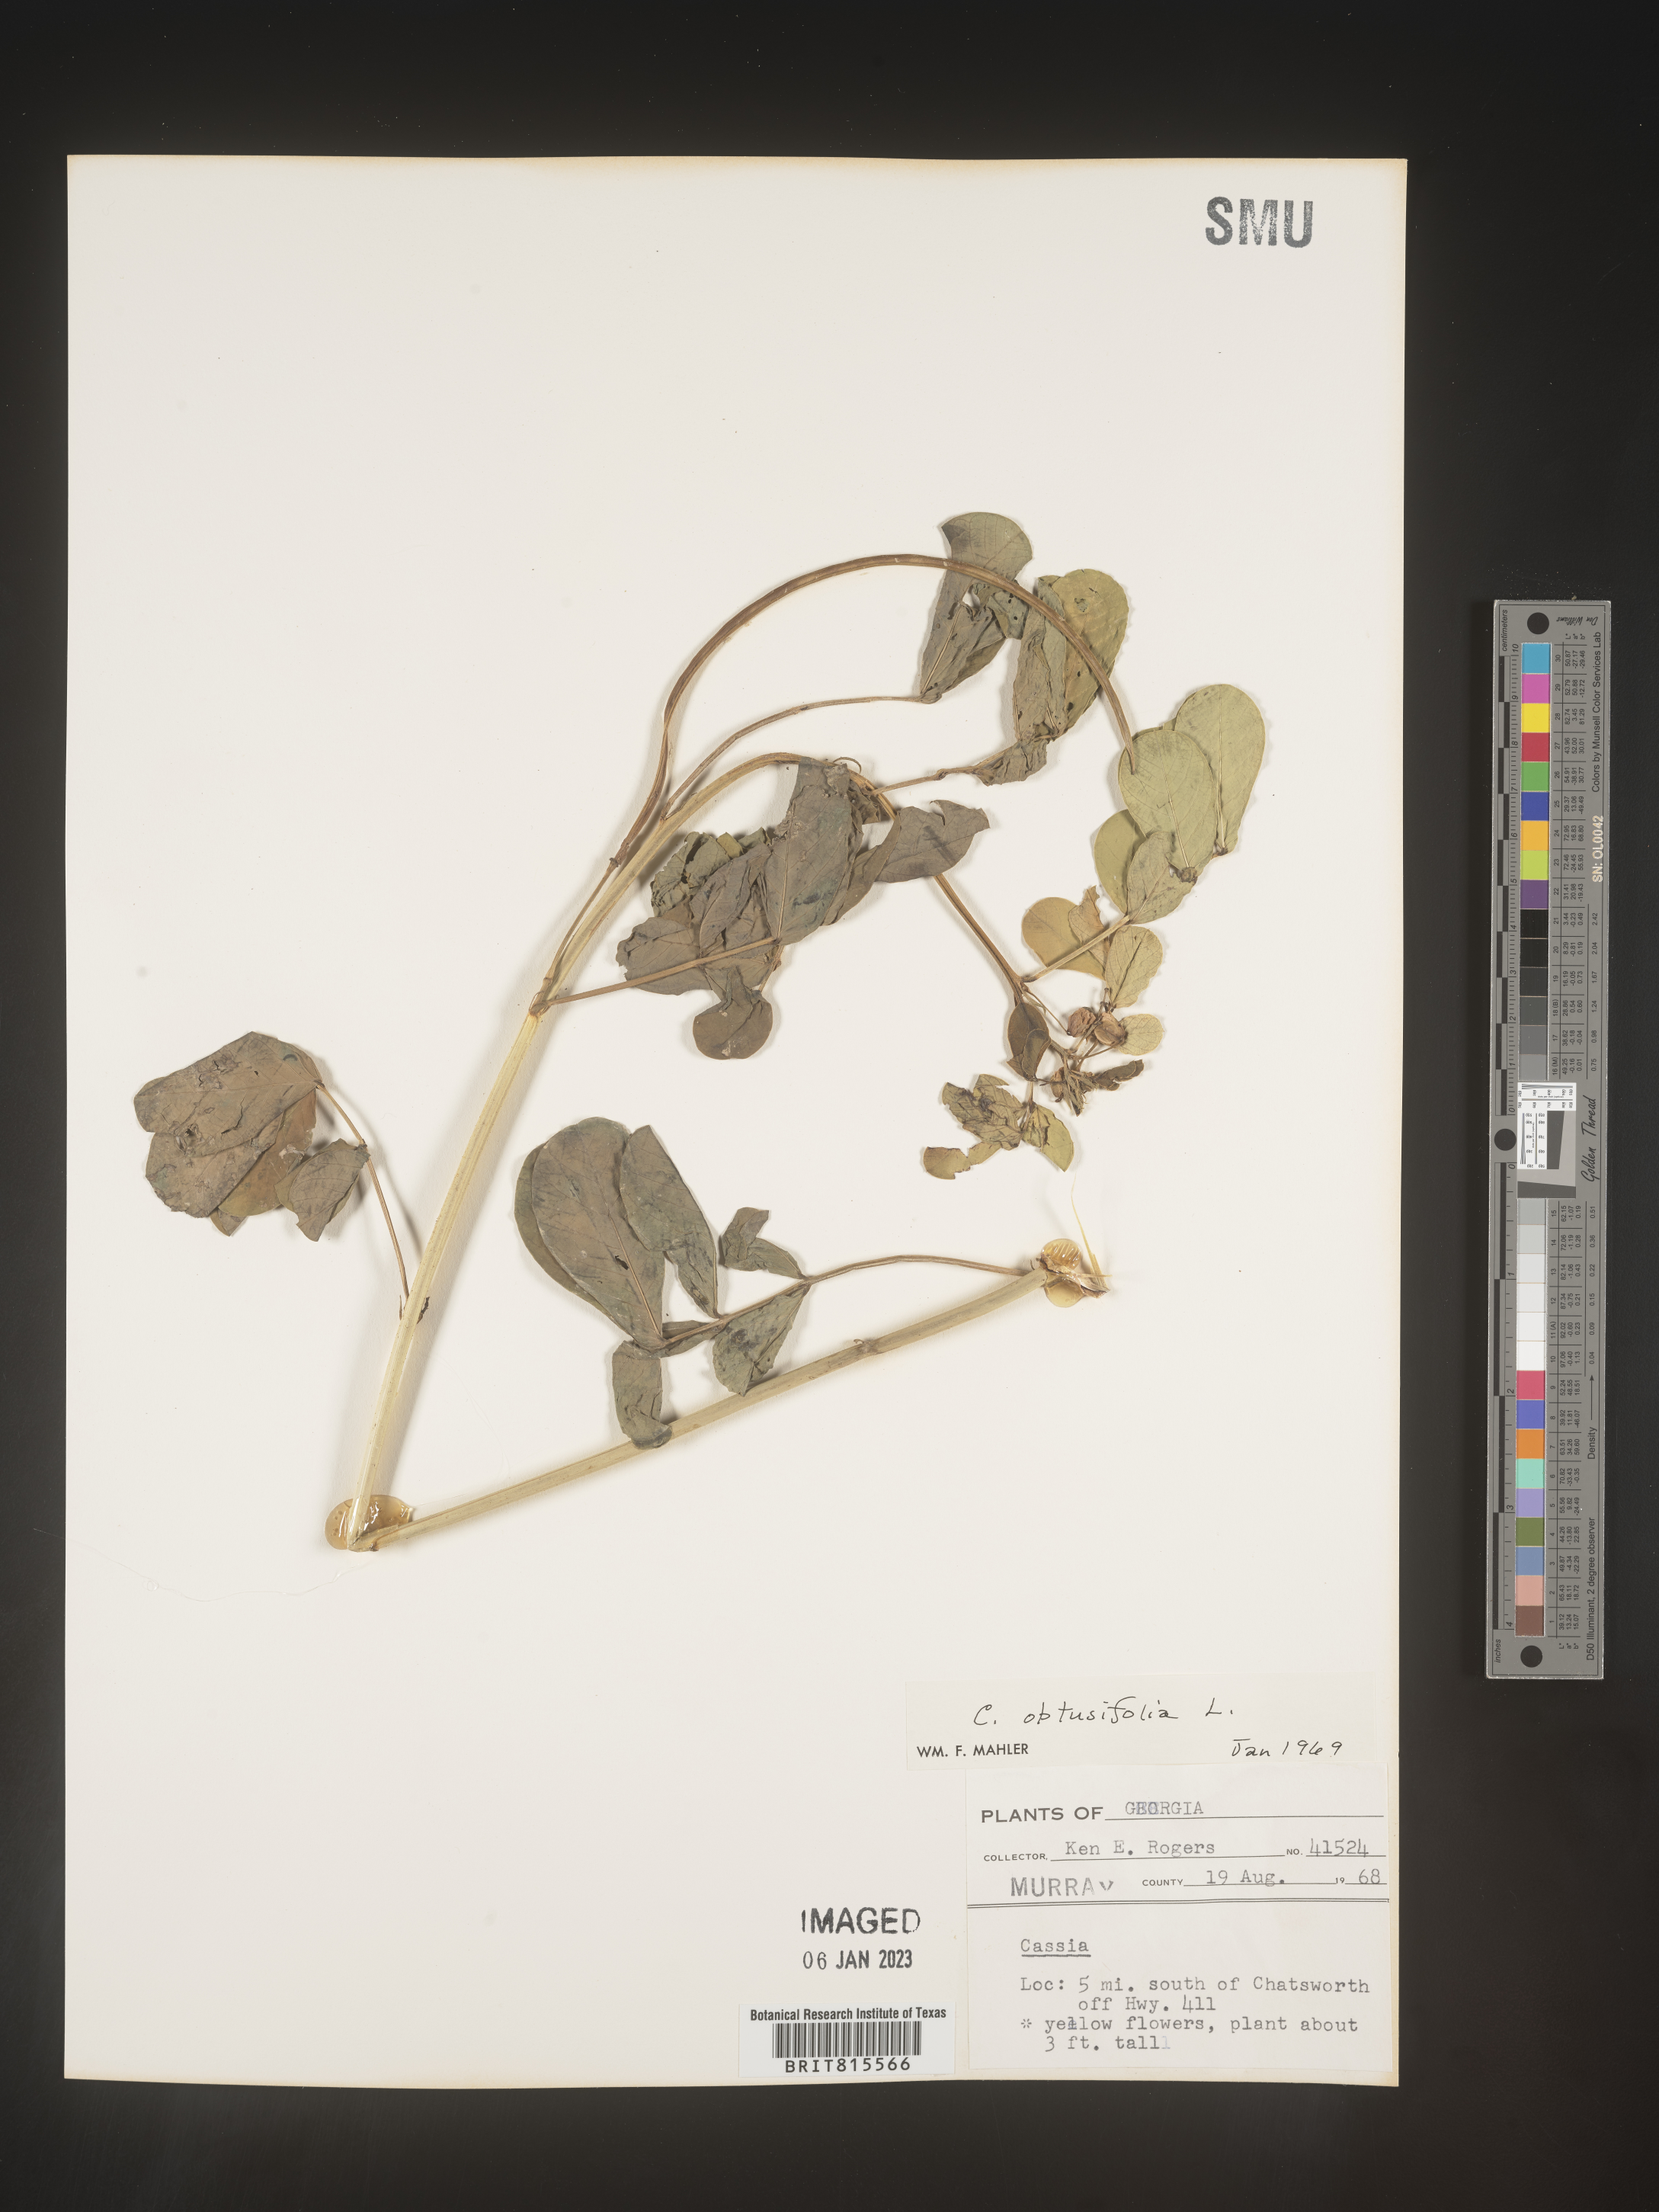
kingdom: Plantae
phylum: Tracheophyta
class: Magnoliopsida
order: Fabales
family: Fabaceae
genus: Senna
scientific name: Senna tora
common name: Sickle senna
